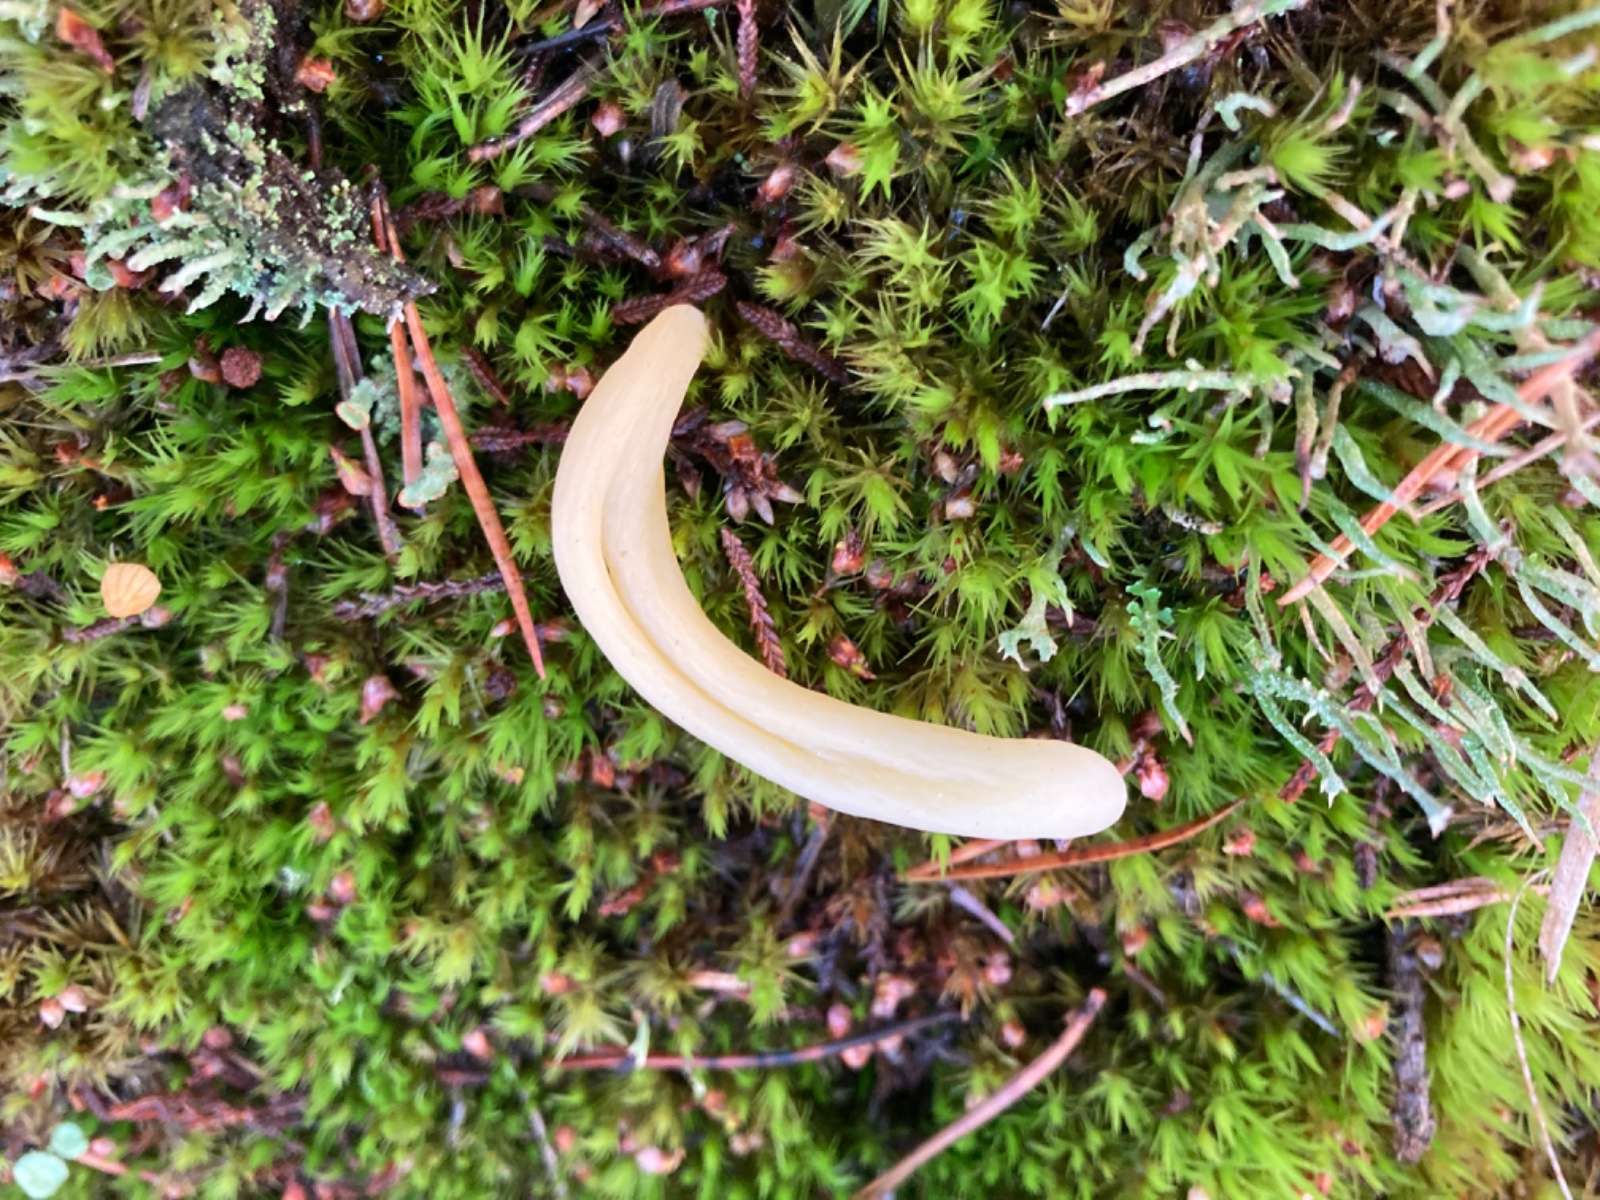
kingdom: Fungi
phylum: Basidiomycota
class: Agaricomycetes
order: Agaricales
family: Clavariaceae
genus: Clavaria
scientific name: Clavaria argillacea
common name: lerfarvet køllesvamp
